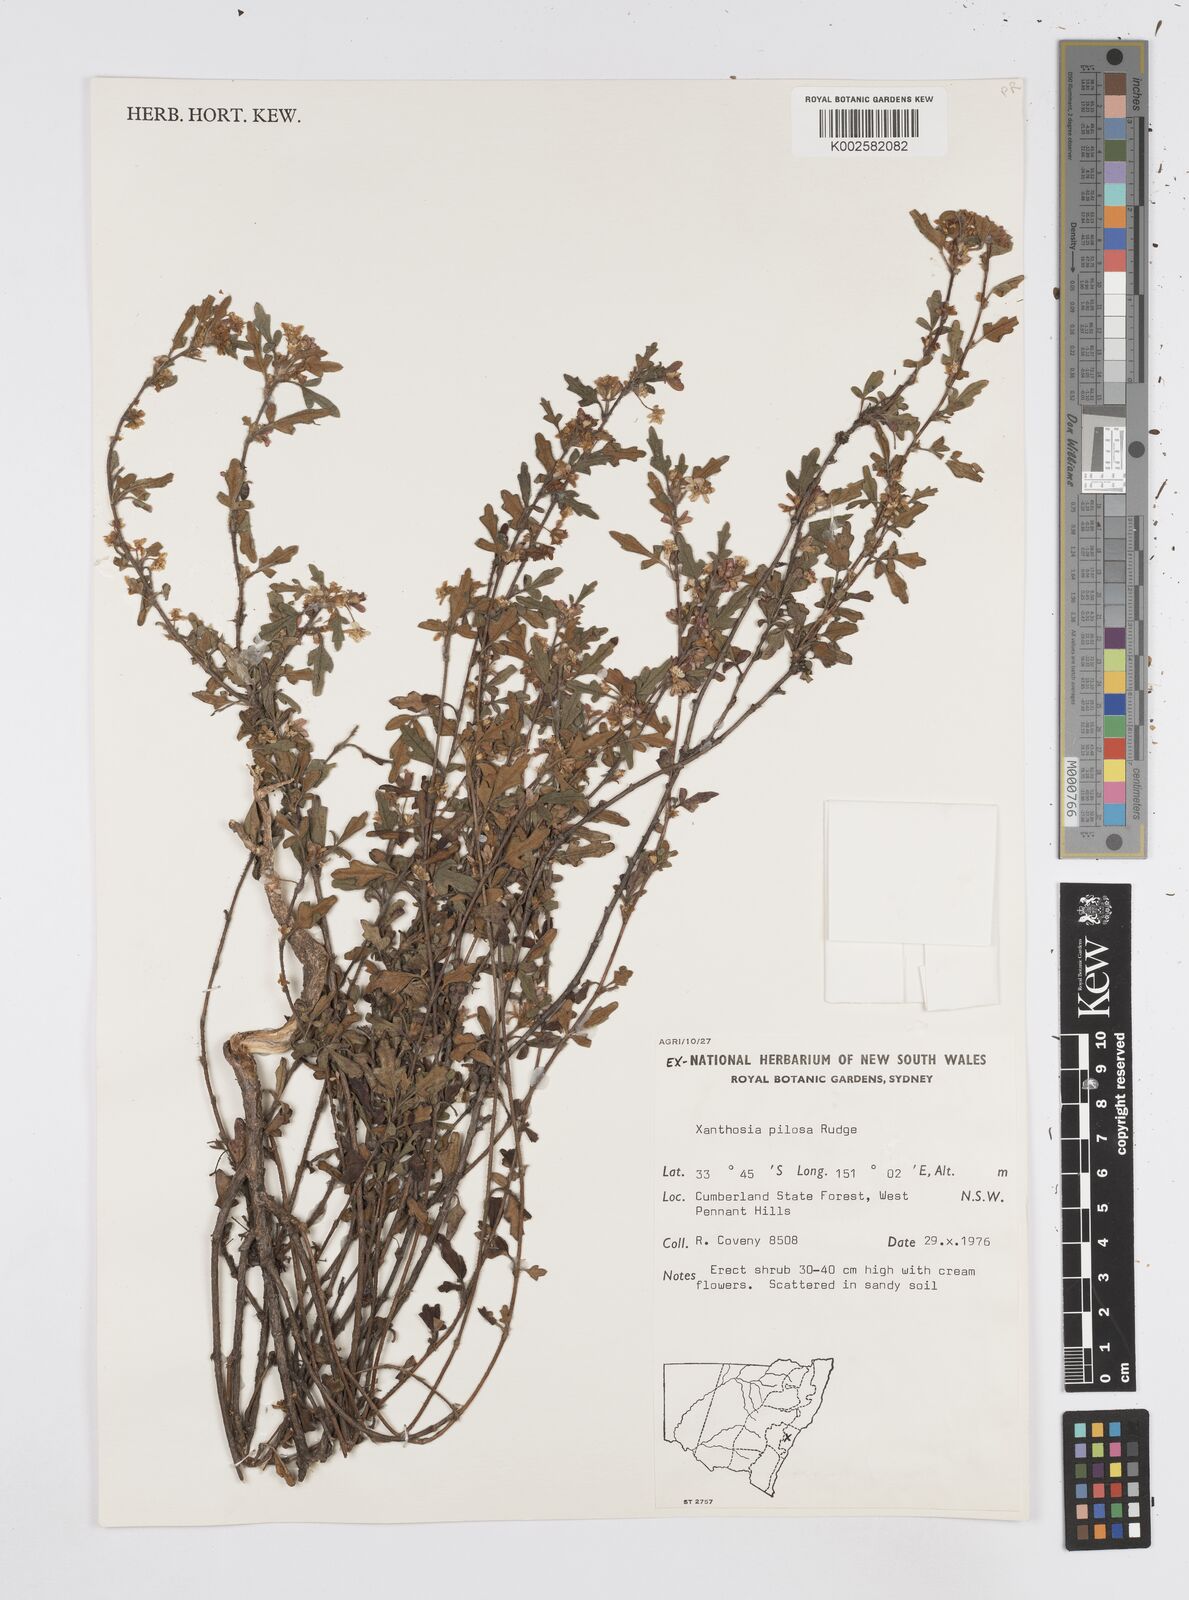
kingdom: Plantae
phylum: Tracheophyta
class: Magnoliopsida
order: Apiales
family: Apiaceae
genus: Xanthosia
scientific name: Xanthosia pilosa
